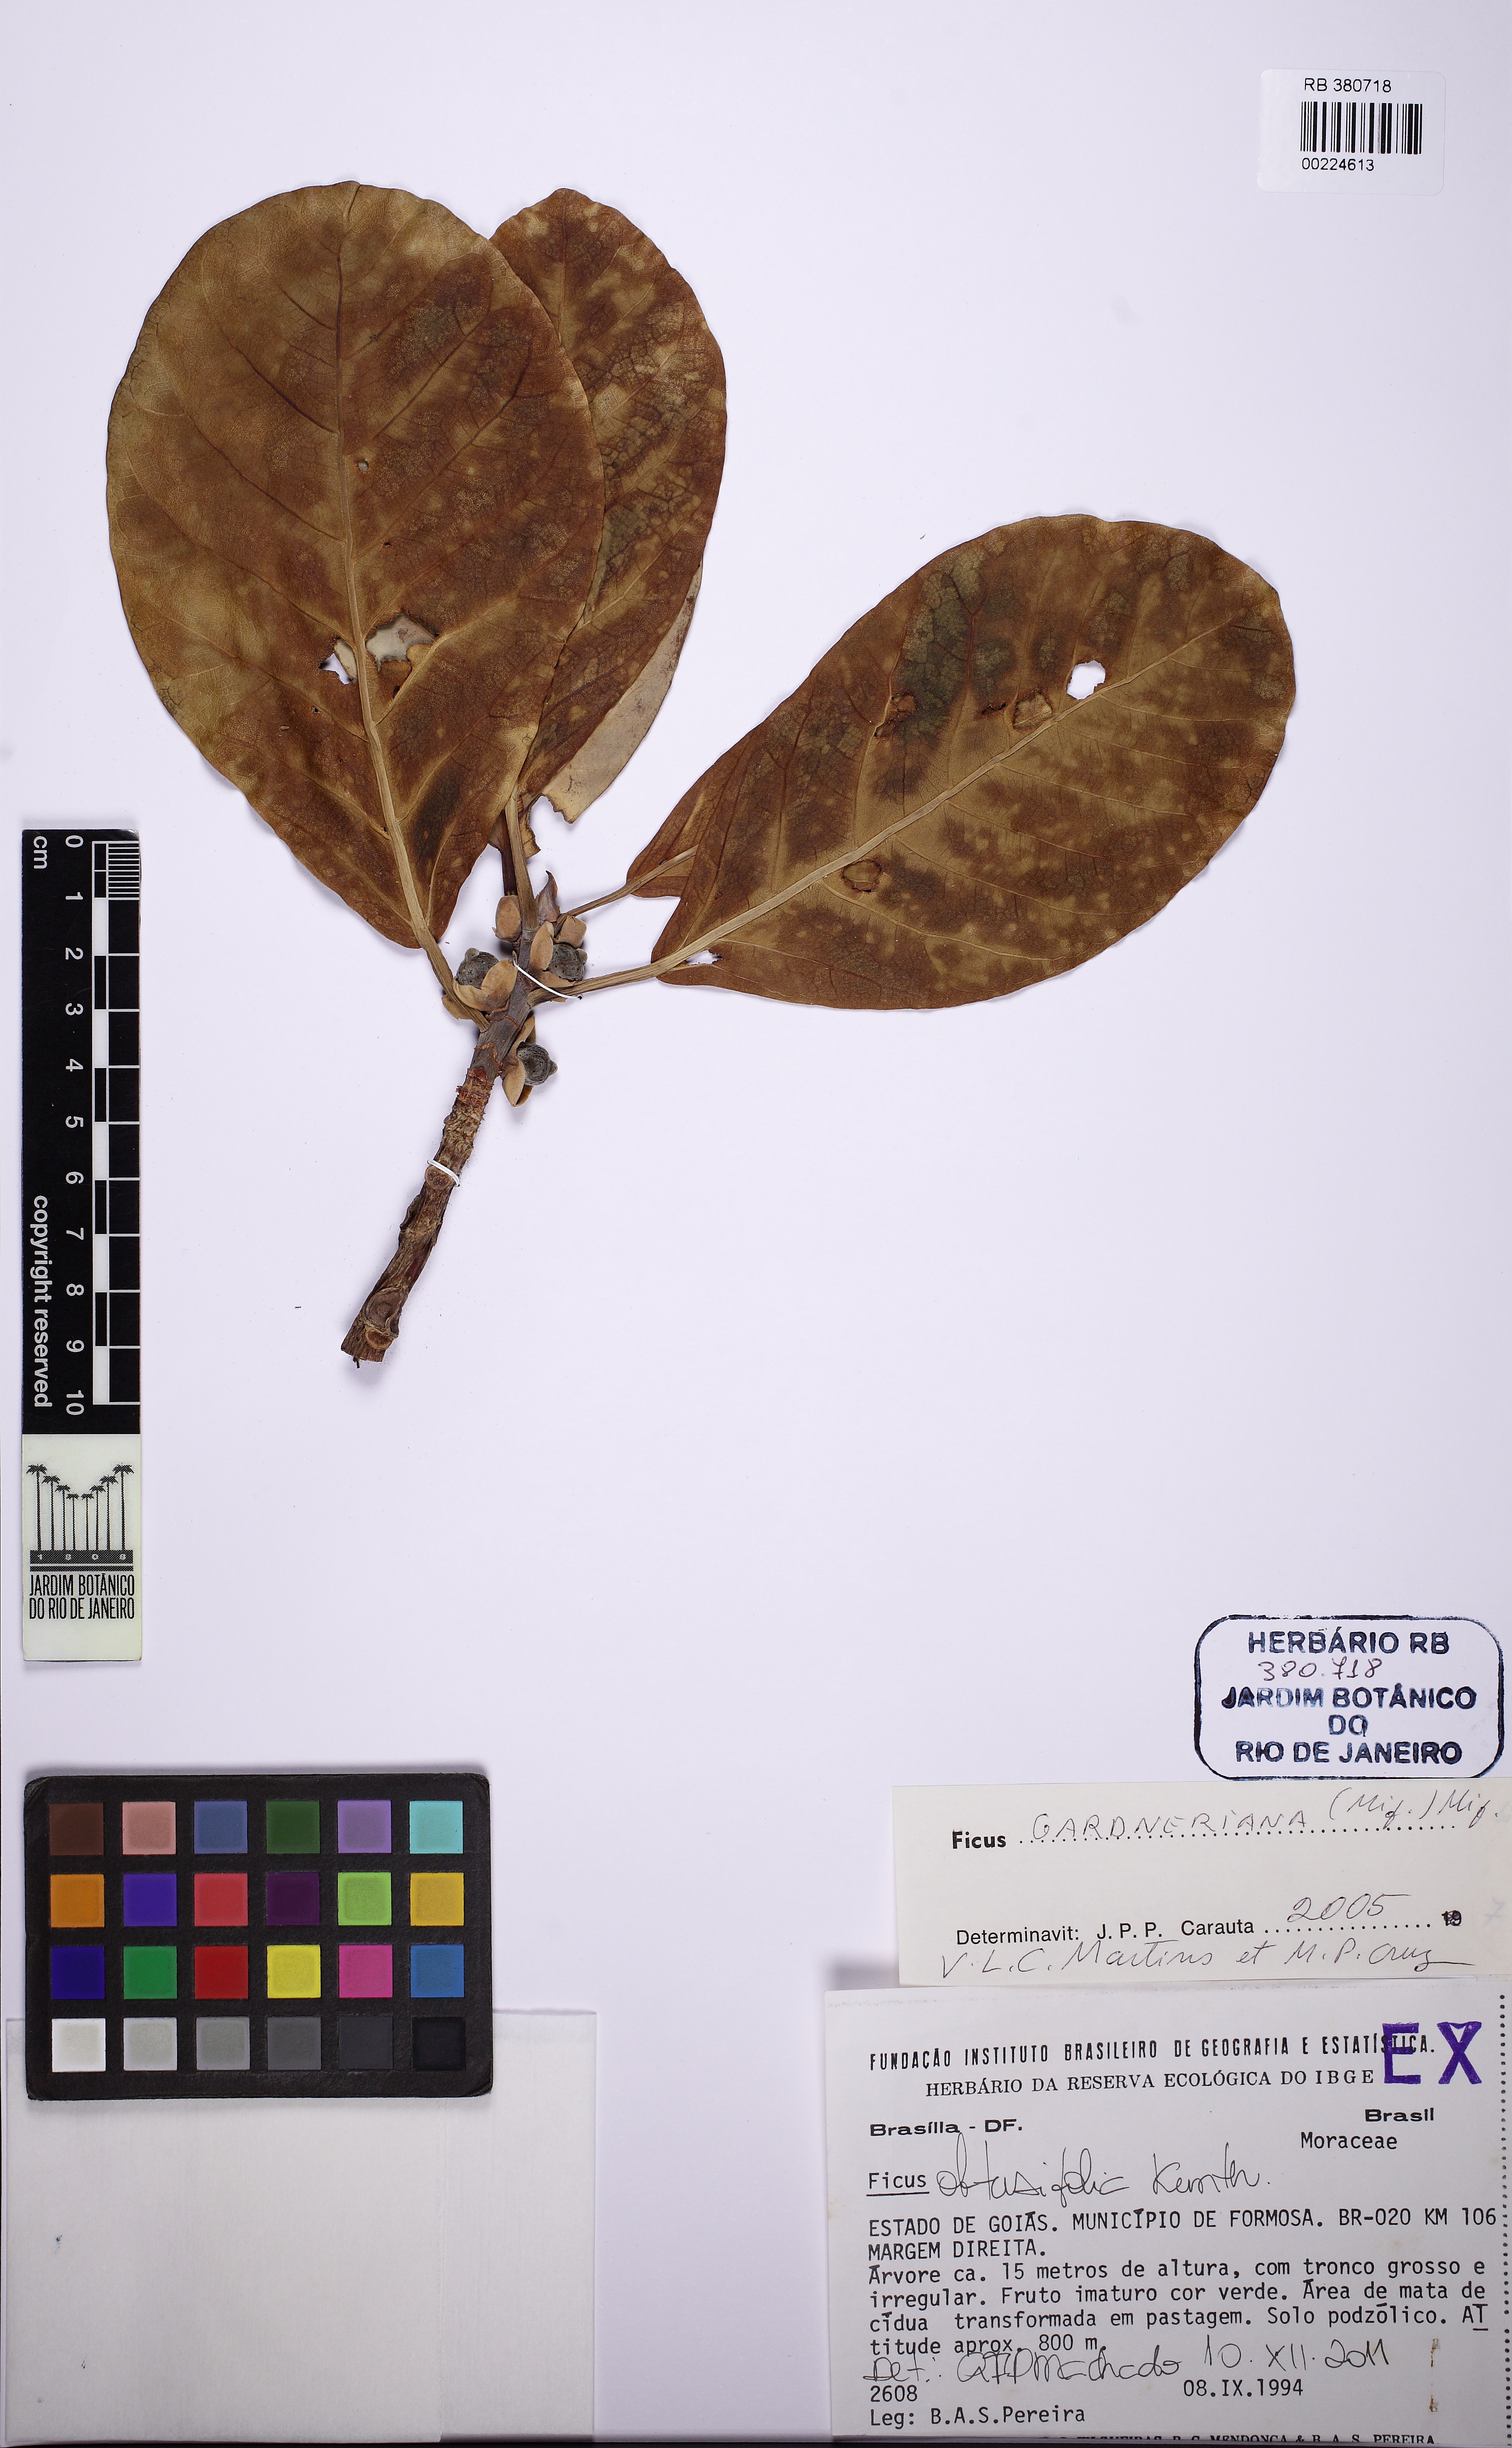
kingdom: Plantae
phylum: Tracheophyta
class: Magnoliopsida
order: Rosales
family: Moraceae
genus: Ficus
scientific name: Ficus obtusifolia
